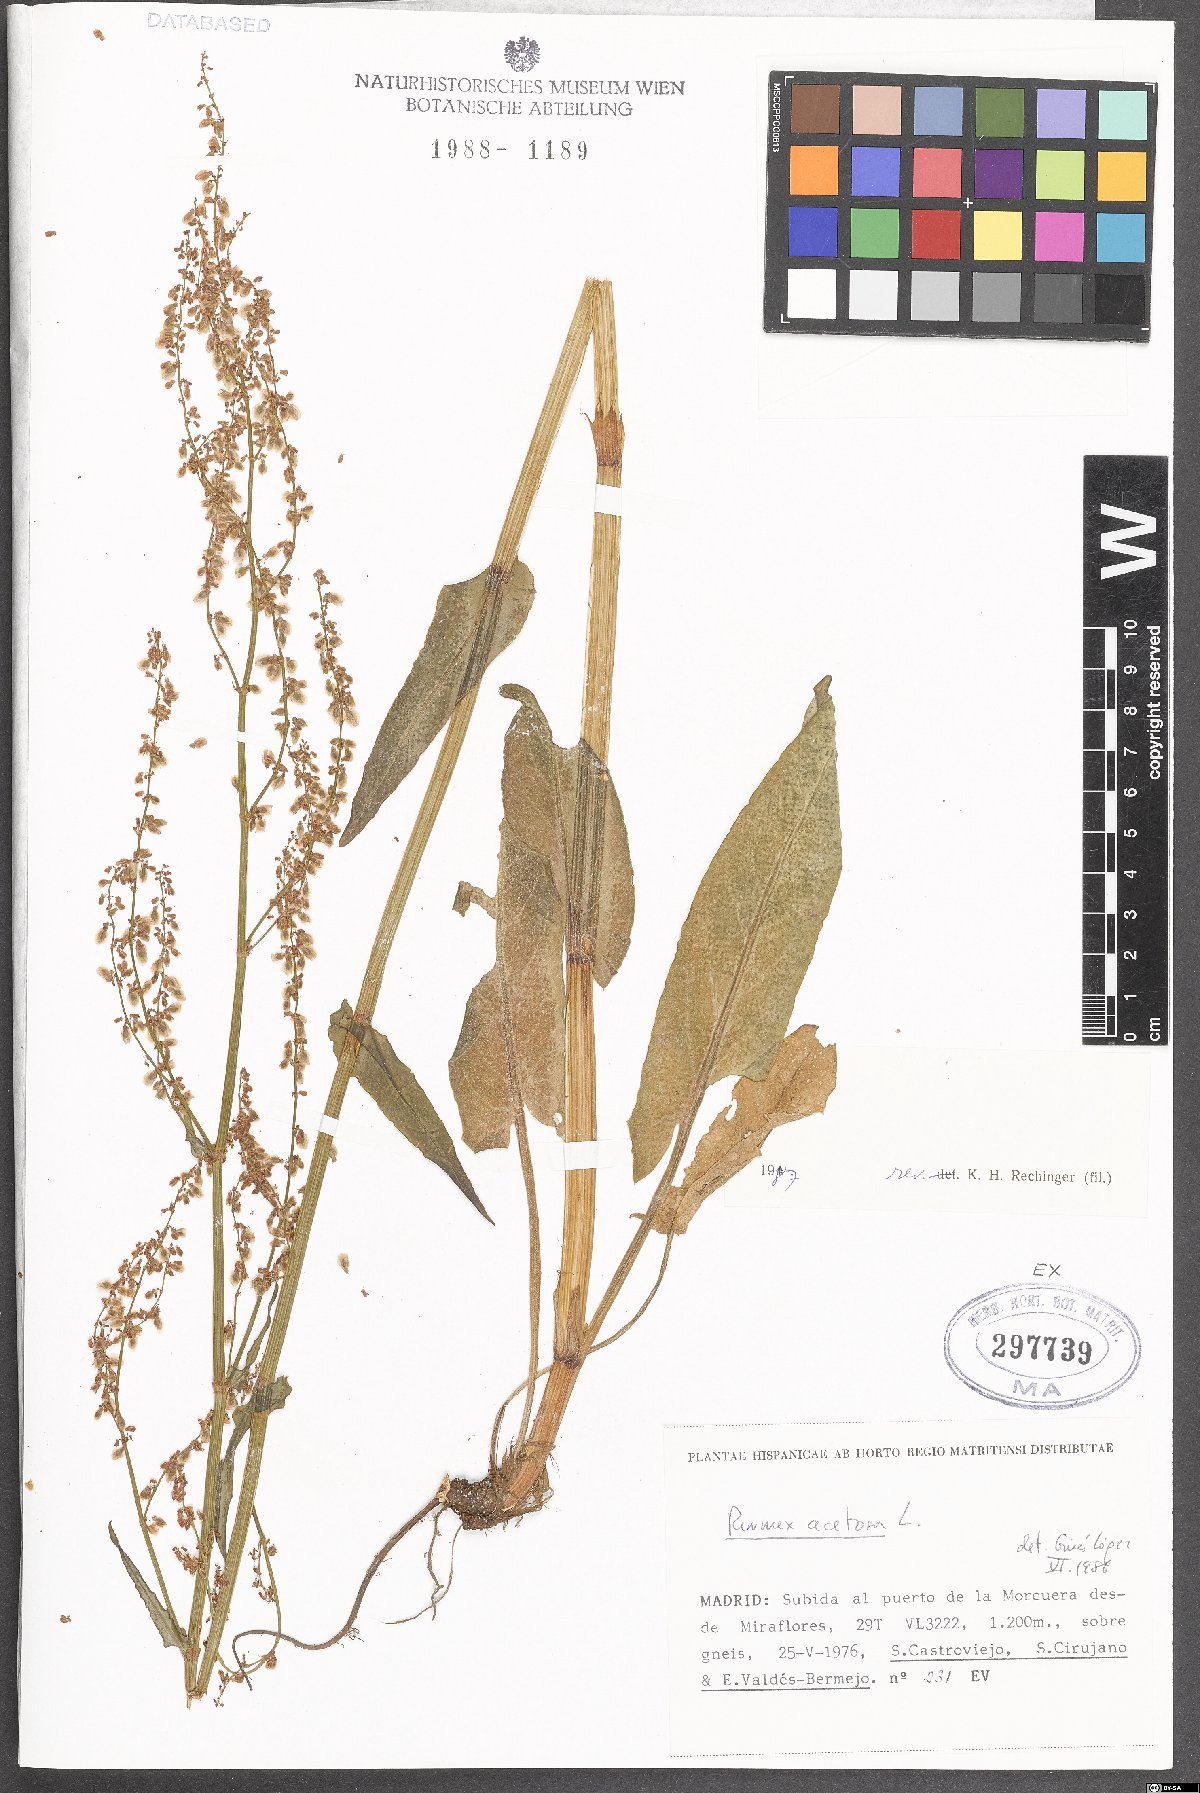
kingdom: Plantae
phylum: Tracheophyta
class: Magnoliopsida
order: Caryophyllales
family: Polygonaceae
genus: Rumex
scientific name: Rumex acetosa
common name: Garden sorrel
